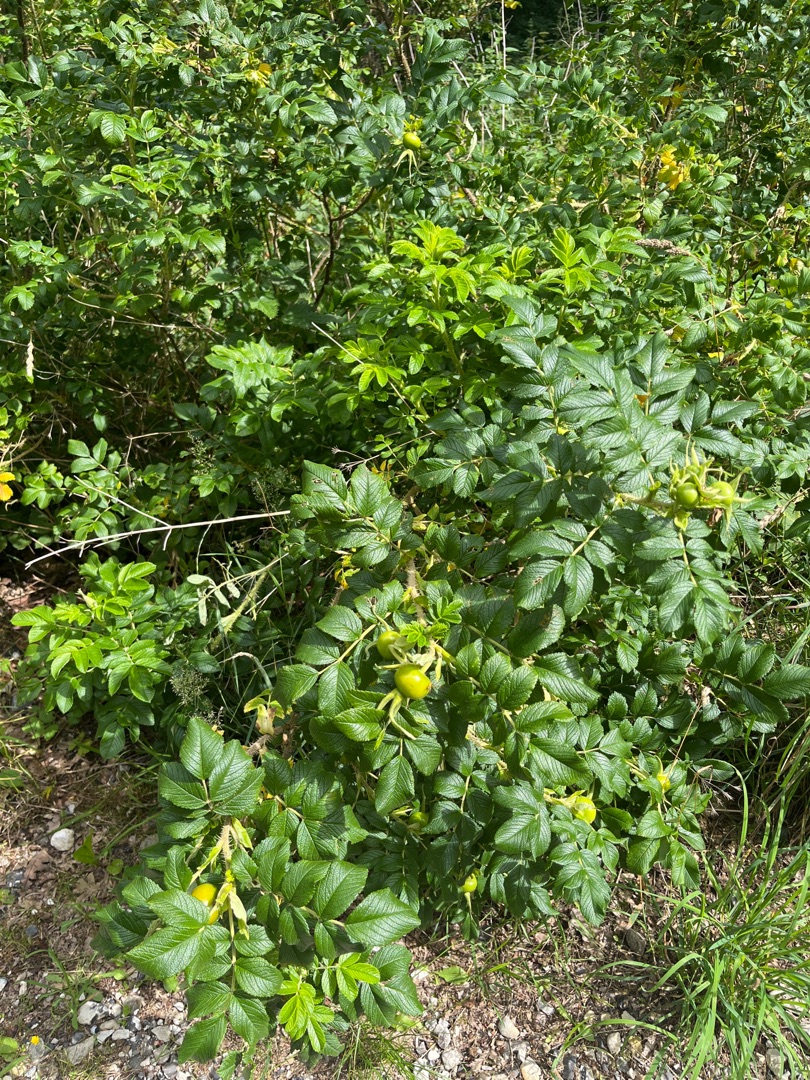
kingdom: Plantae
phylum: Tracheophyta
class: Magnoliopsida
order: Rosales
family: Rosaceae
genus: Rosa
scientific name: Rosa rugosa
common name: Rynket rose
